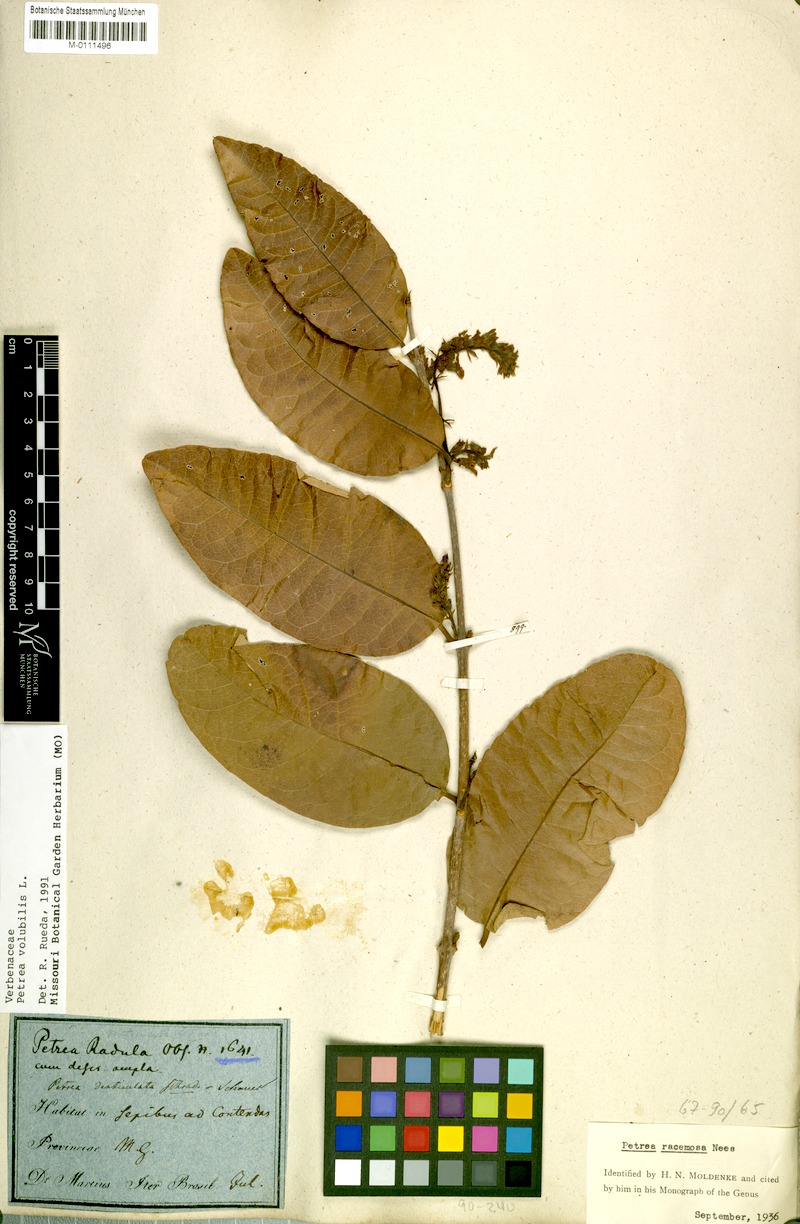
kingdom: Plantae
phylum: Tracheophyta
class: Magnoliopsida
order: Lamiales
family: Verbenaceae
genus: Petrea
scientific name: Petrea volubilis
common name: Queen's-wreath
